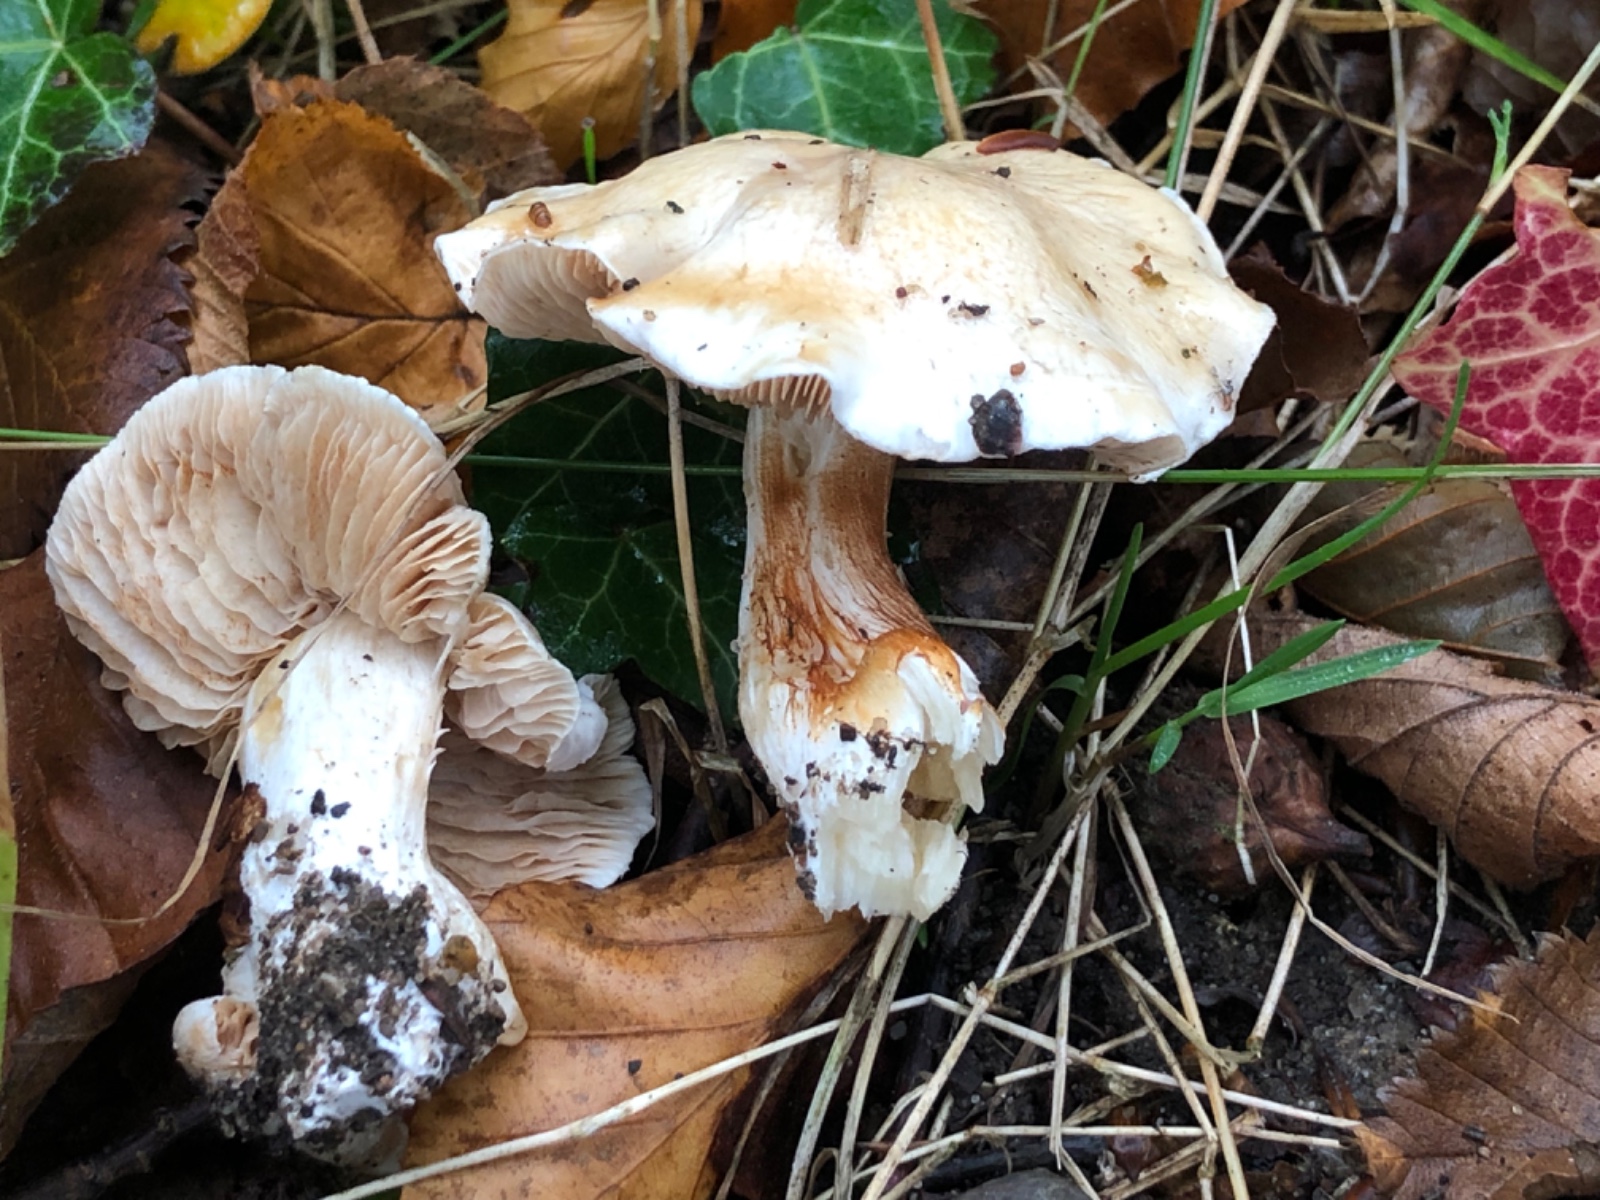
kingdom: Fungi
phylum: Basidiomycota
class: Agaricomycetes
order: Agaricales
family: Cortinariaceae
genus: Thaxterogaster
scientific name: Thaxterogaster
